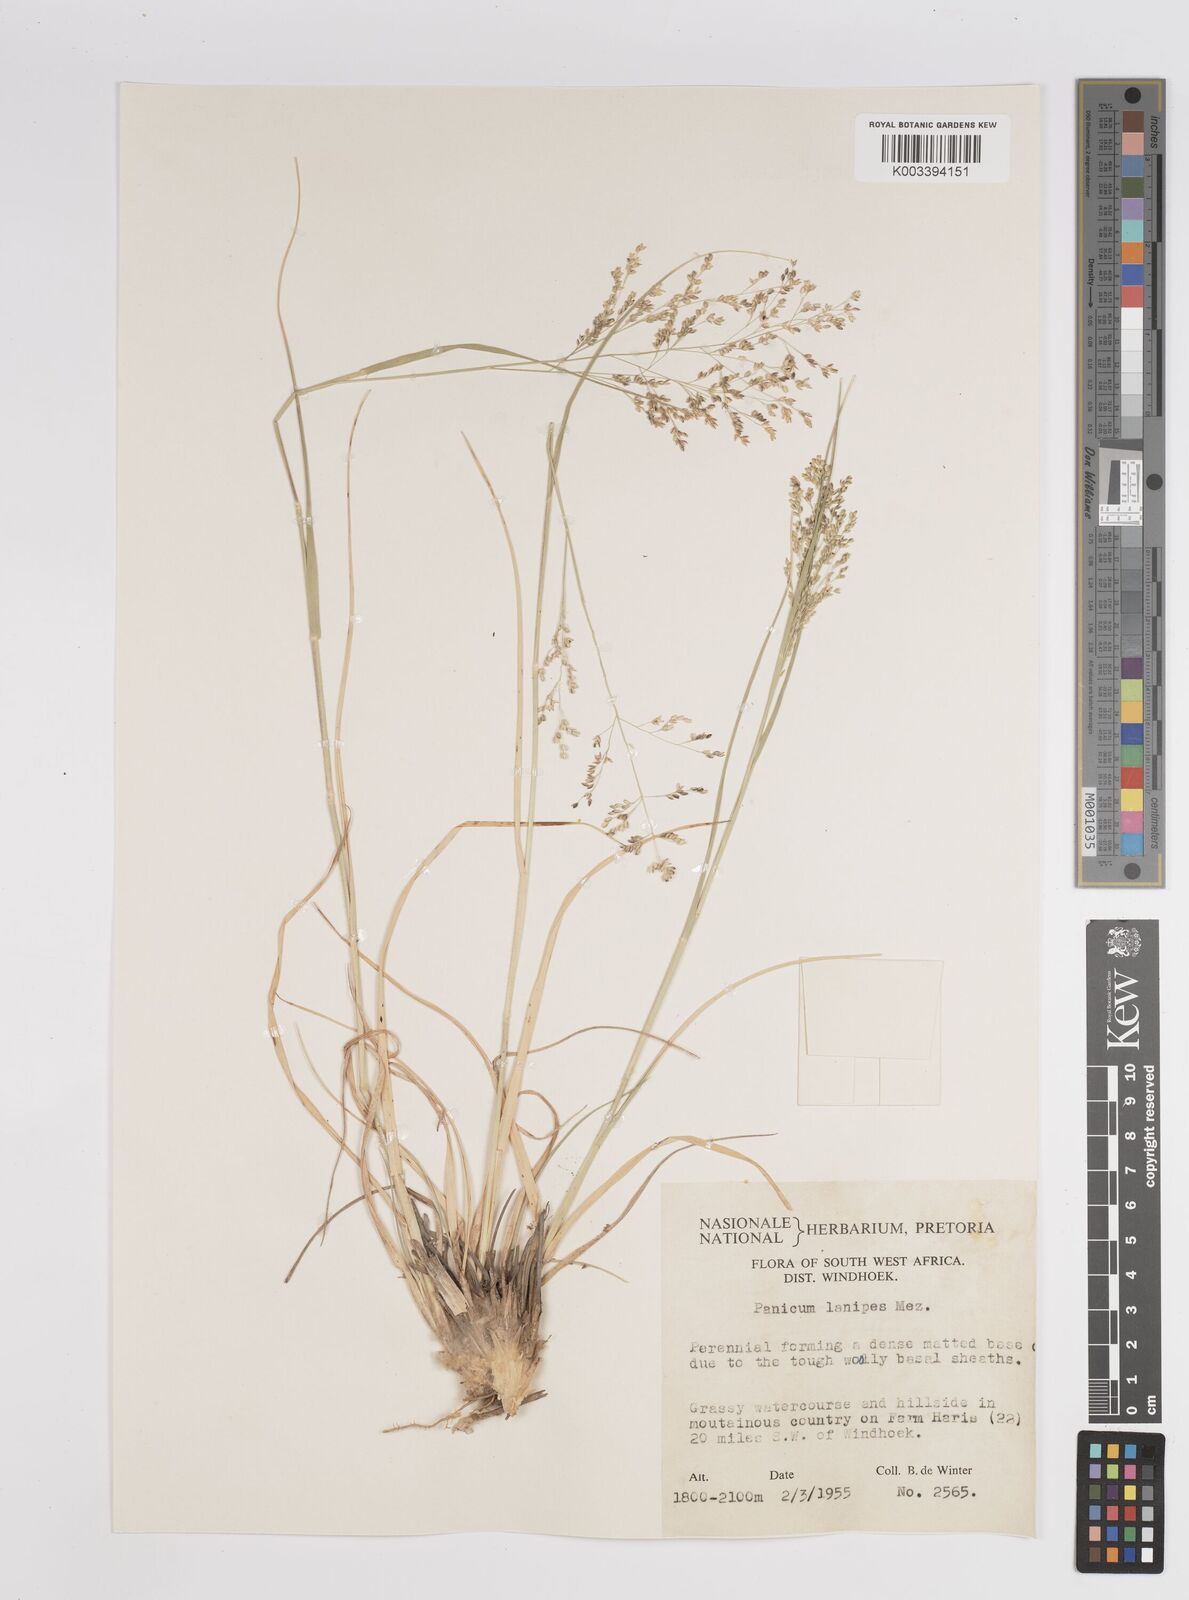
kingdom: Plantae
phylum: Tracheophyta
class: Liliopsida
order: Poales
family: Poaceae
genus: Panicum
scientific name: Panicum lanipes
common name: Wolvoet panicum
